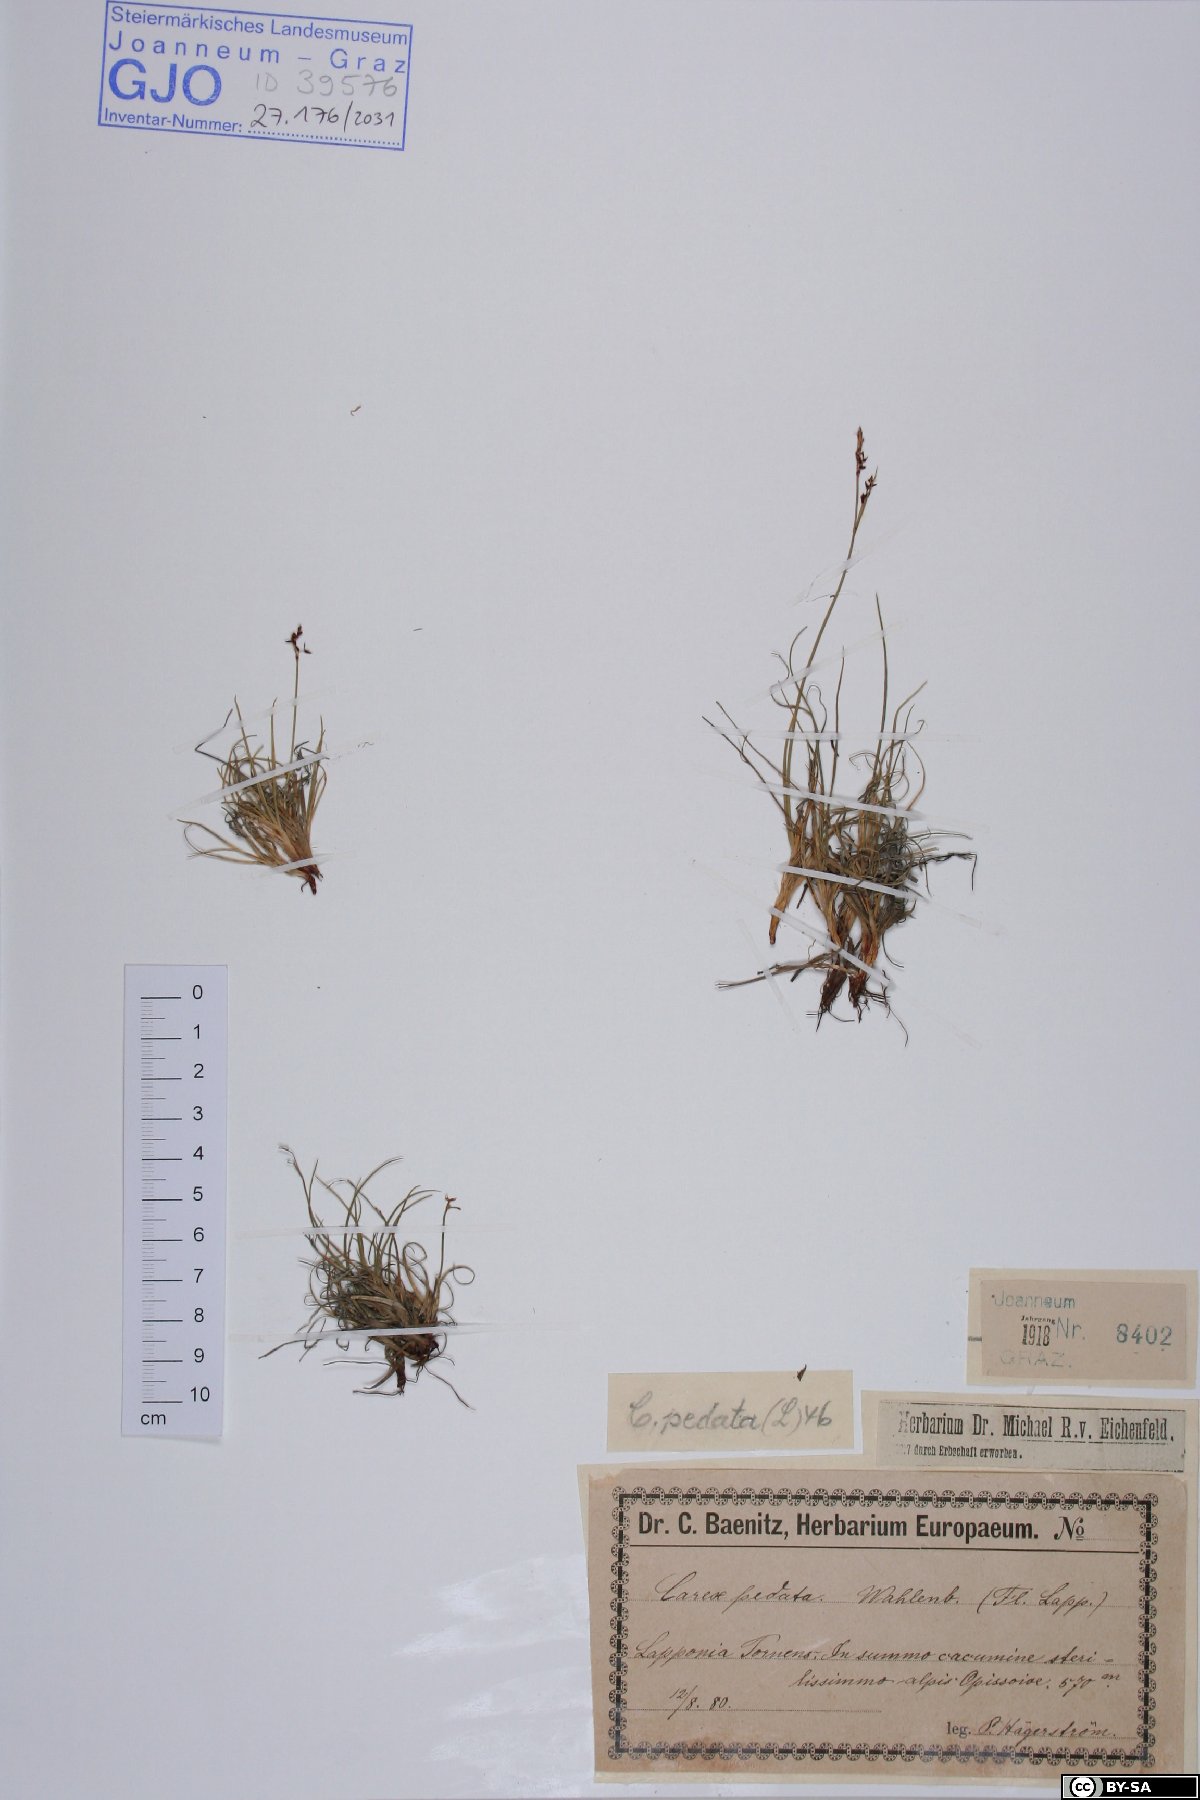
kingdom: Plantae
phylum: Tracheophyta
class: Liliopsida
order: Poales
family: Cyperaceae
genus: Carex
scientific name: Carex ornithopoda
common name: Bird's-foot sedge
